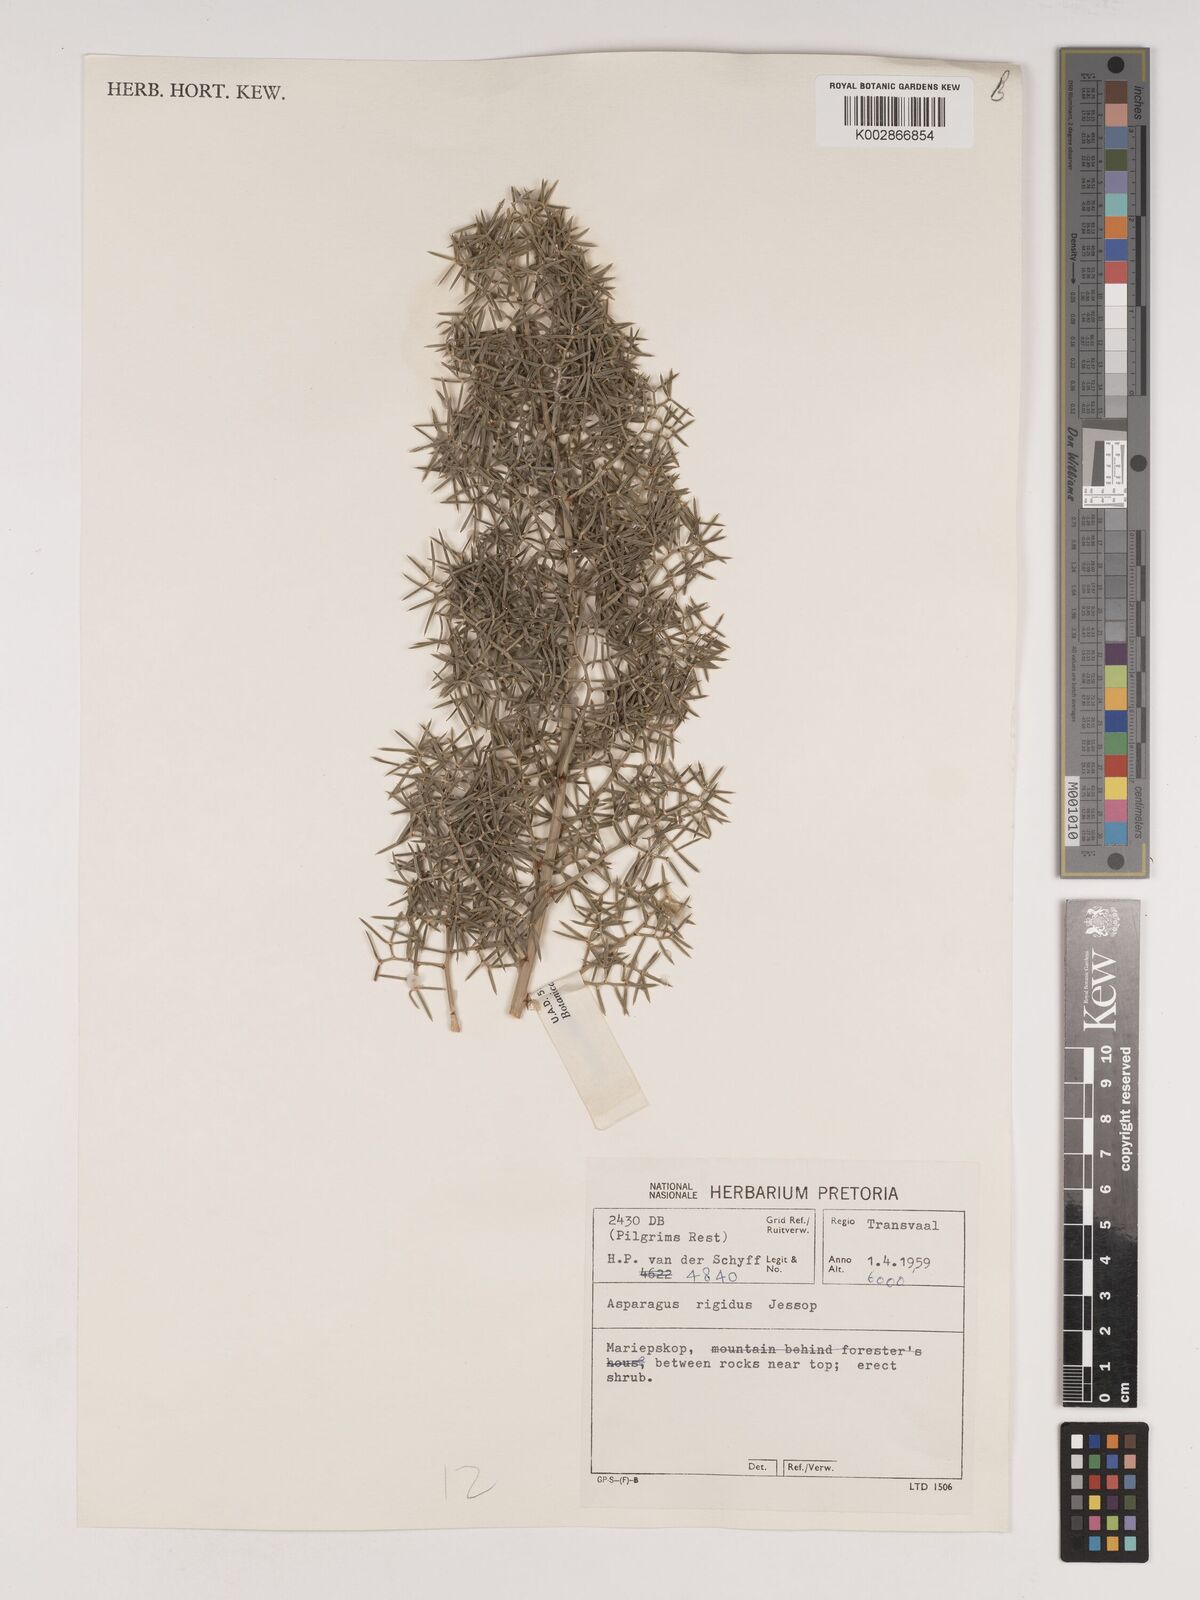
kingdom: Plantae
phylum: Tracheophyta
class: Liliopsida
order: Asparagales
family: Asparagaceae
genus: Asparagus
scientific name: Asparagus rigidus
